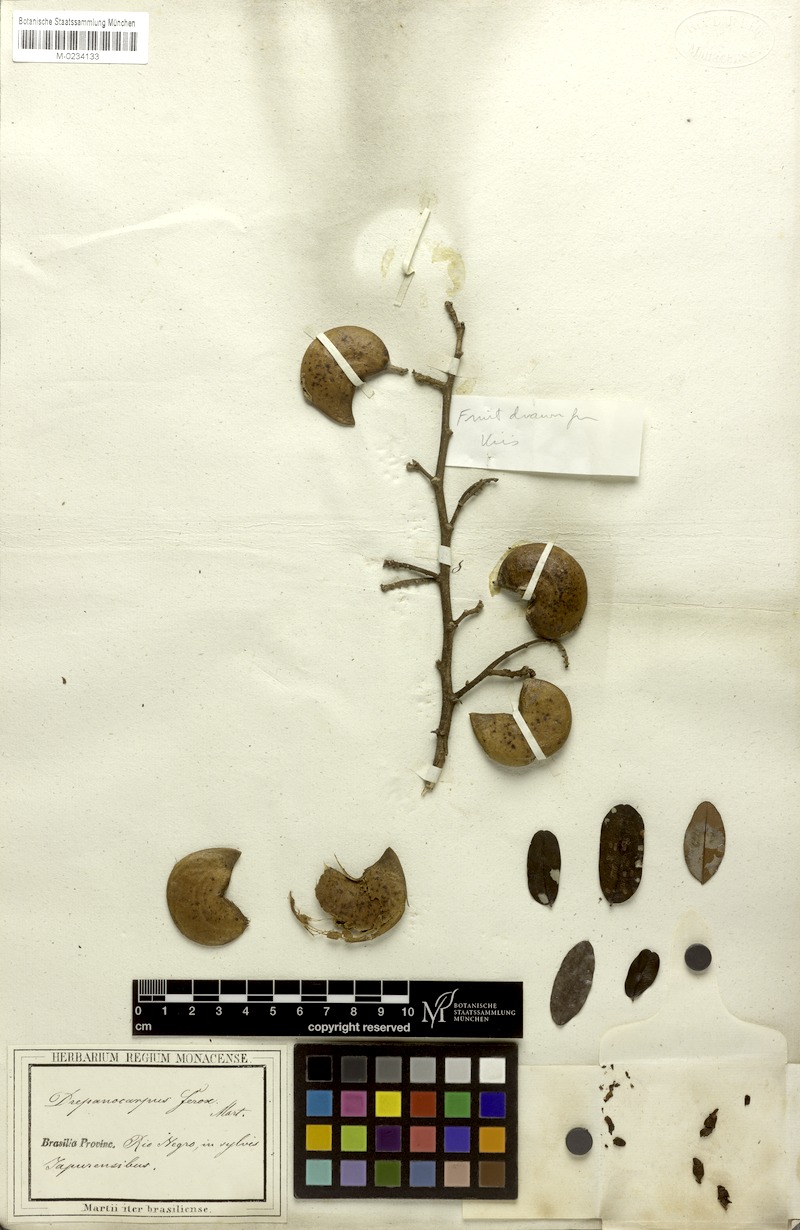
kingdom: Plantae
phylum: Tracheophyta
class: Magnoliopsida
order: Fabales
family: Fabaceae
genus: Machaerium
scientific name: Machaerium ferox
